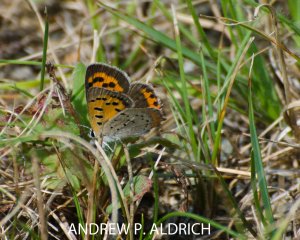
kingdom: Animalia
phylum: Arthropoda
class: Insecta
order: Lepidoptera
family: Lycaenidae
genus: Lycaena
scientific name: Lycaena phlaeas
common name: American Copper
